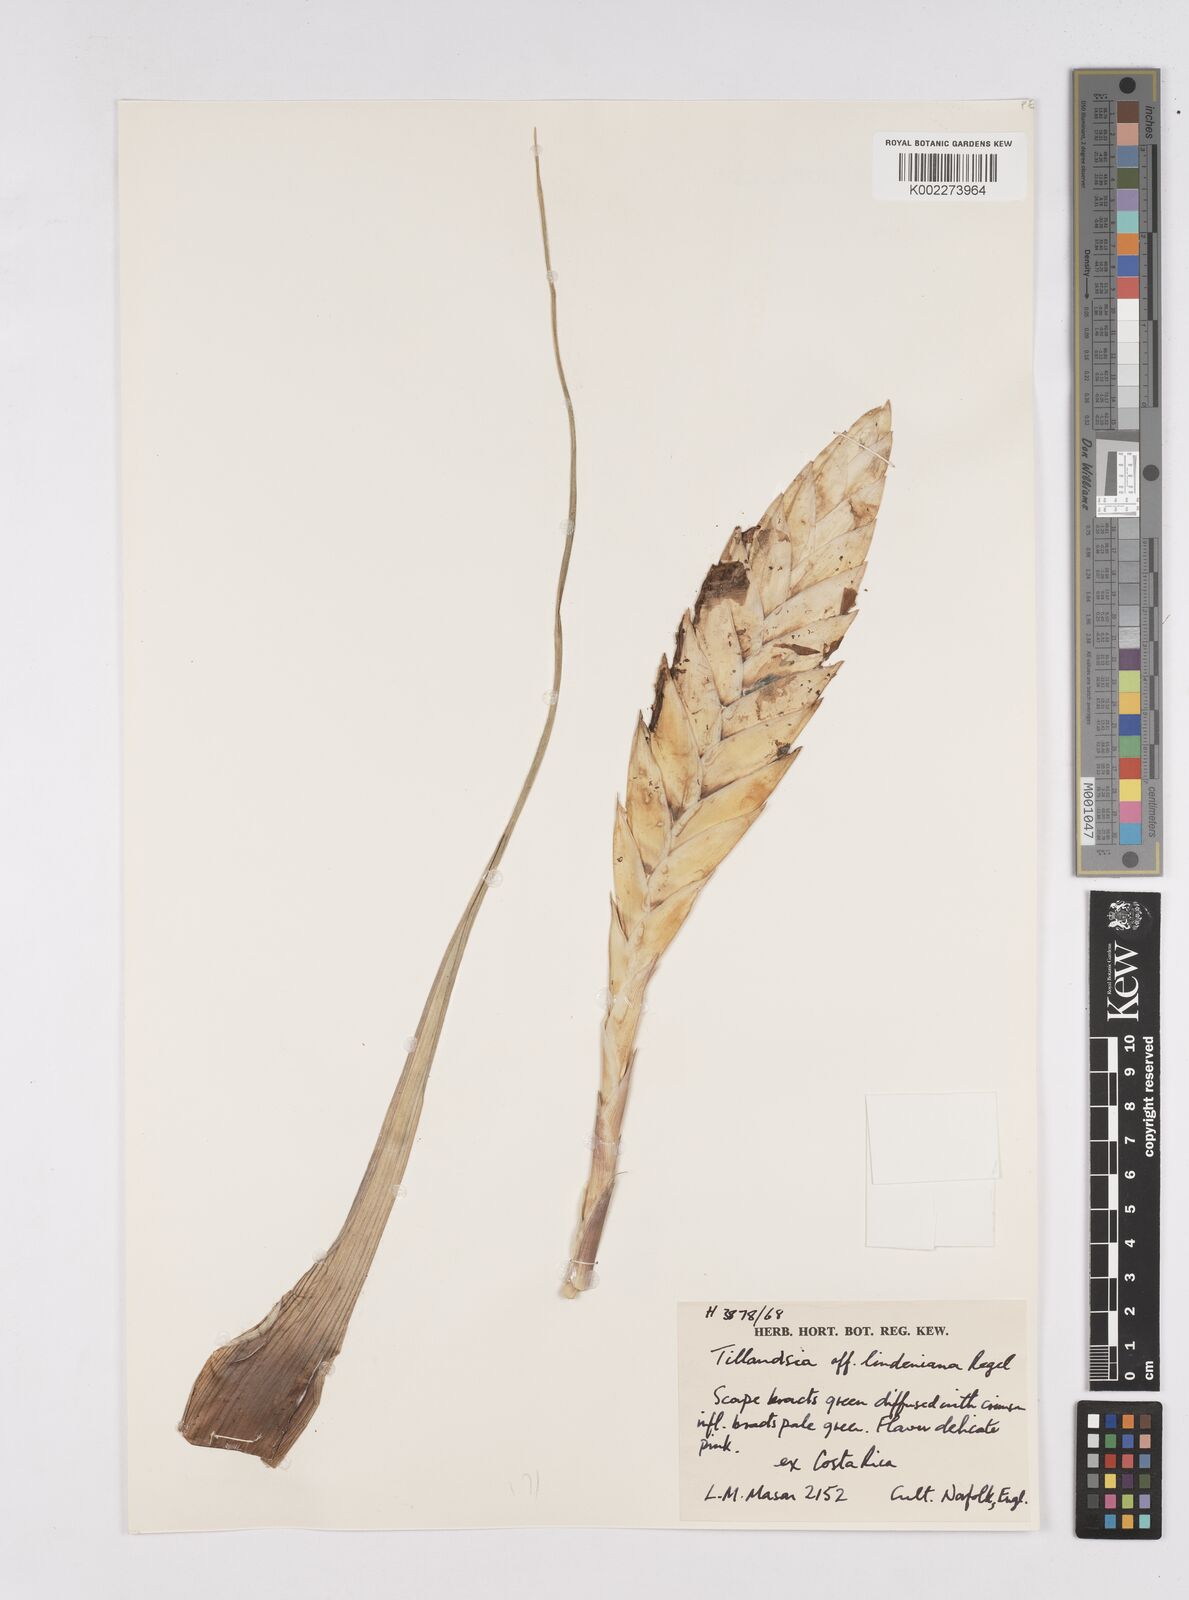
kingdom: Plantae
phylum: Tracheophyta
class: Liliopsida
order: Poales
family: Bromeliaceae
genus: Wallisia
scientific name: Wallisia lindeniana
